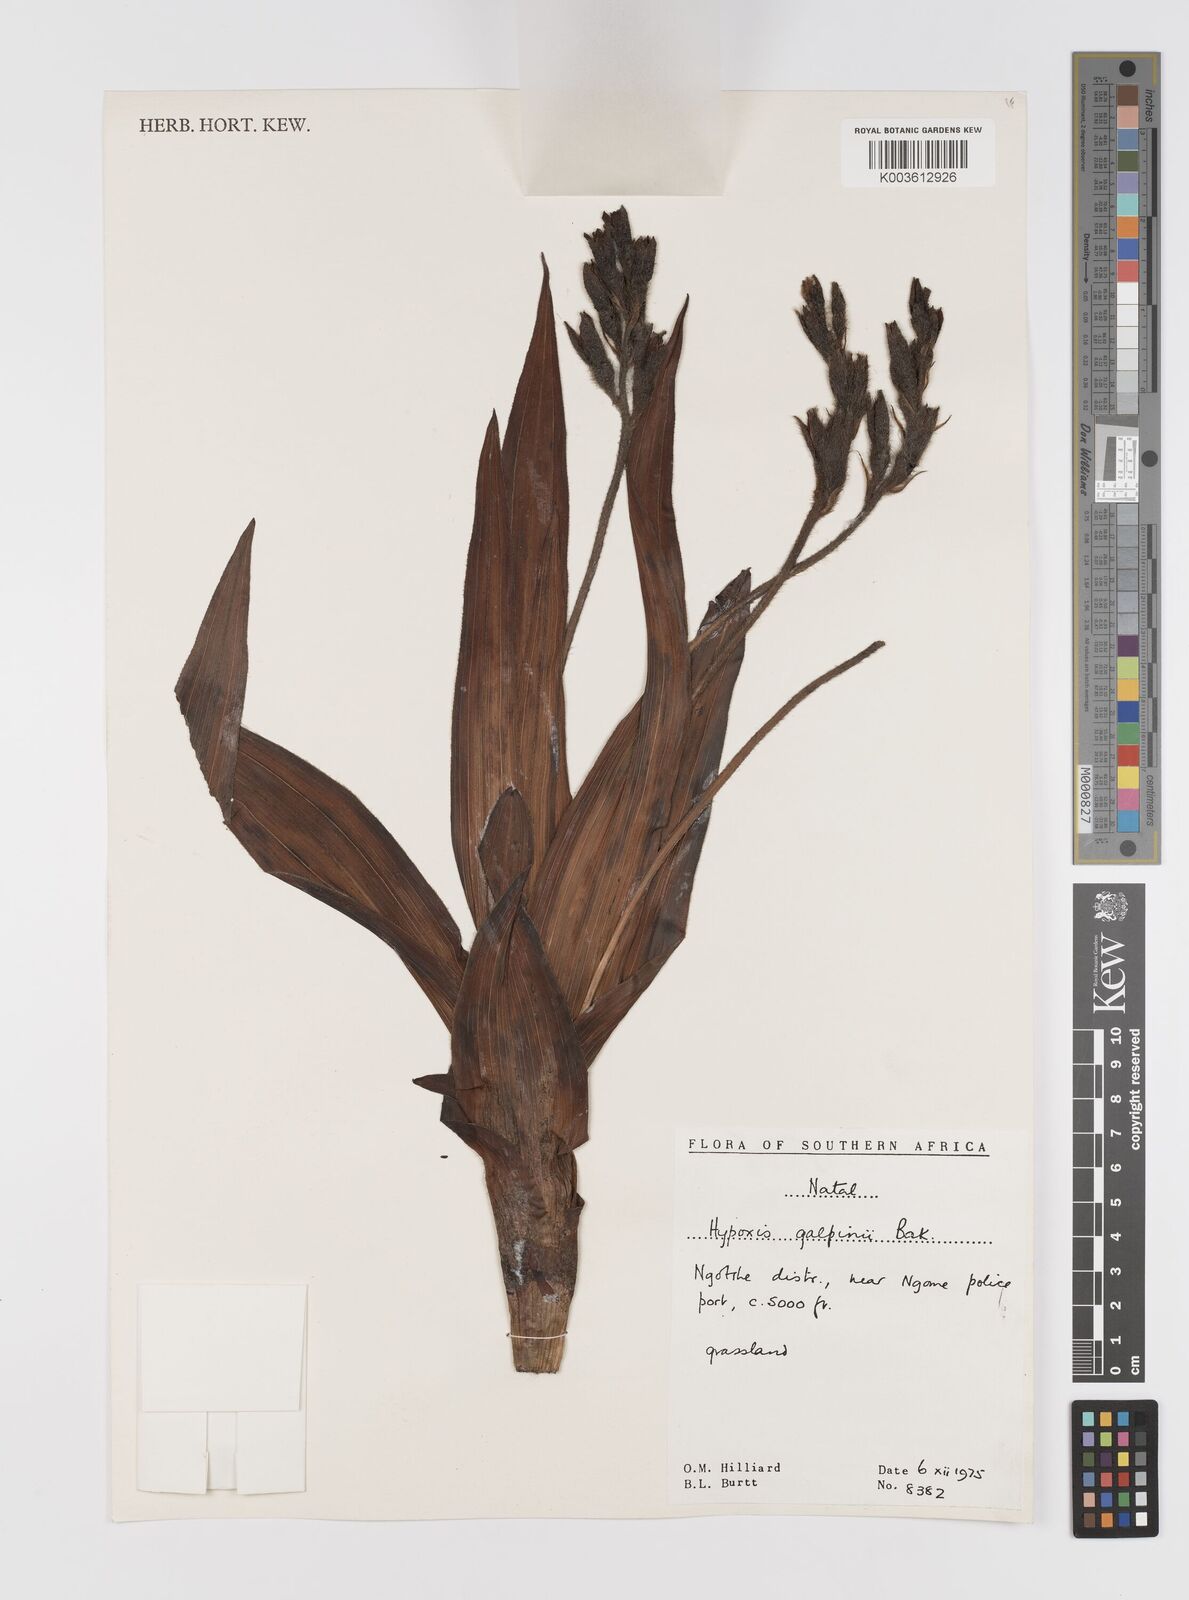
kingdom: Plantae
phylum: Tracheophyta
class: Liliopsida
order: Asparagales
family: Hypoxidaceae
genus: Hypoxis
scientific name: Hypoxis galpinii
